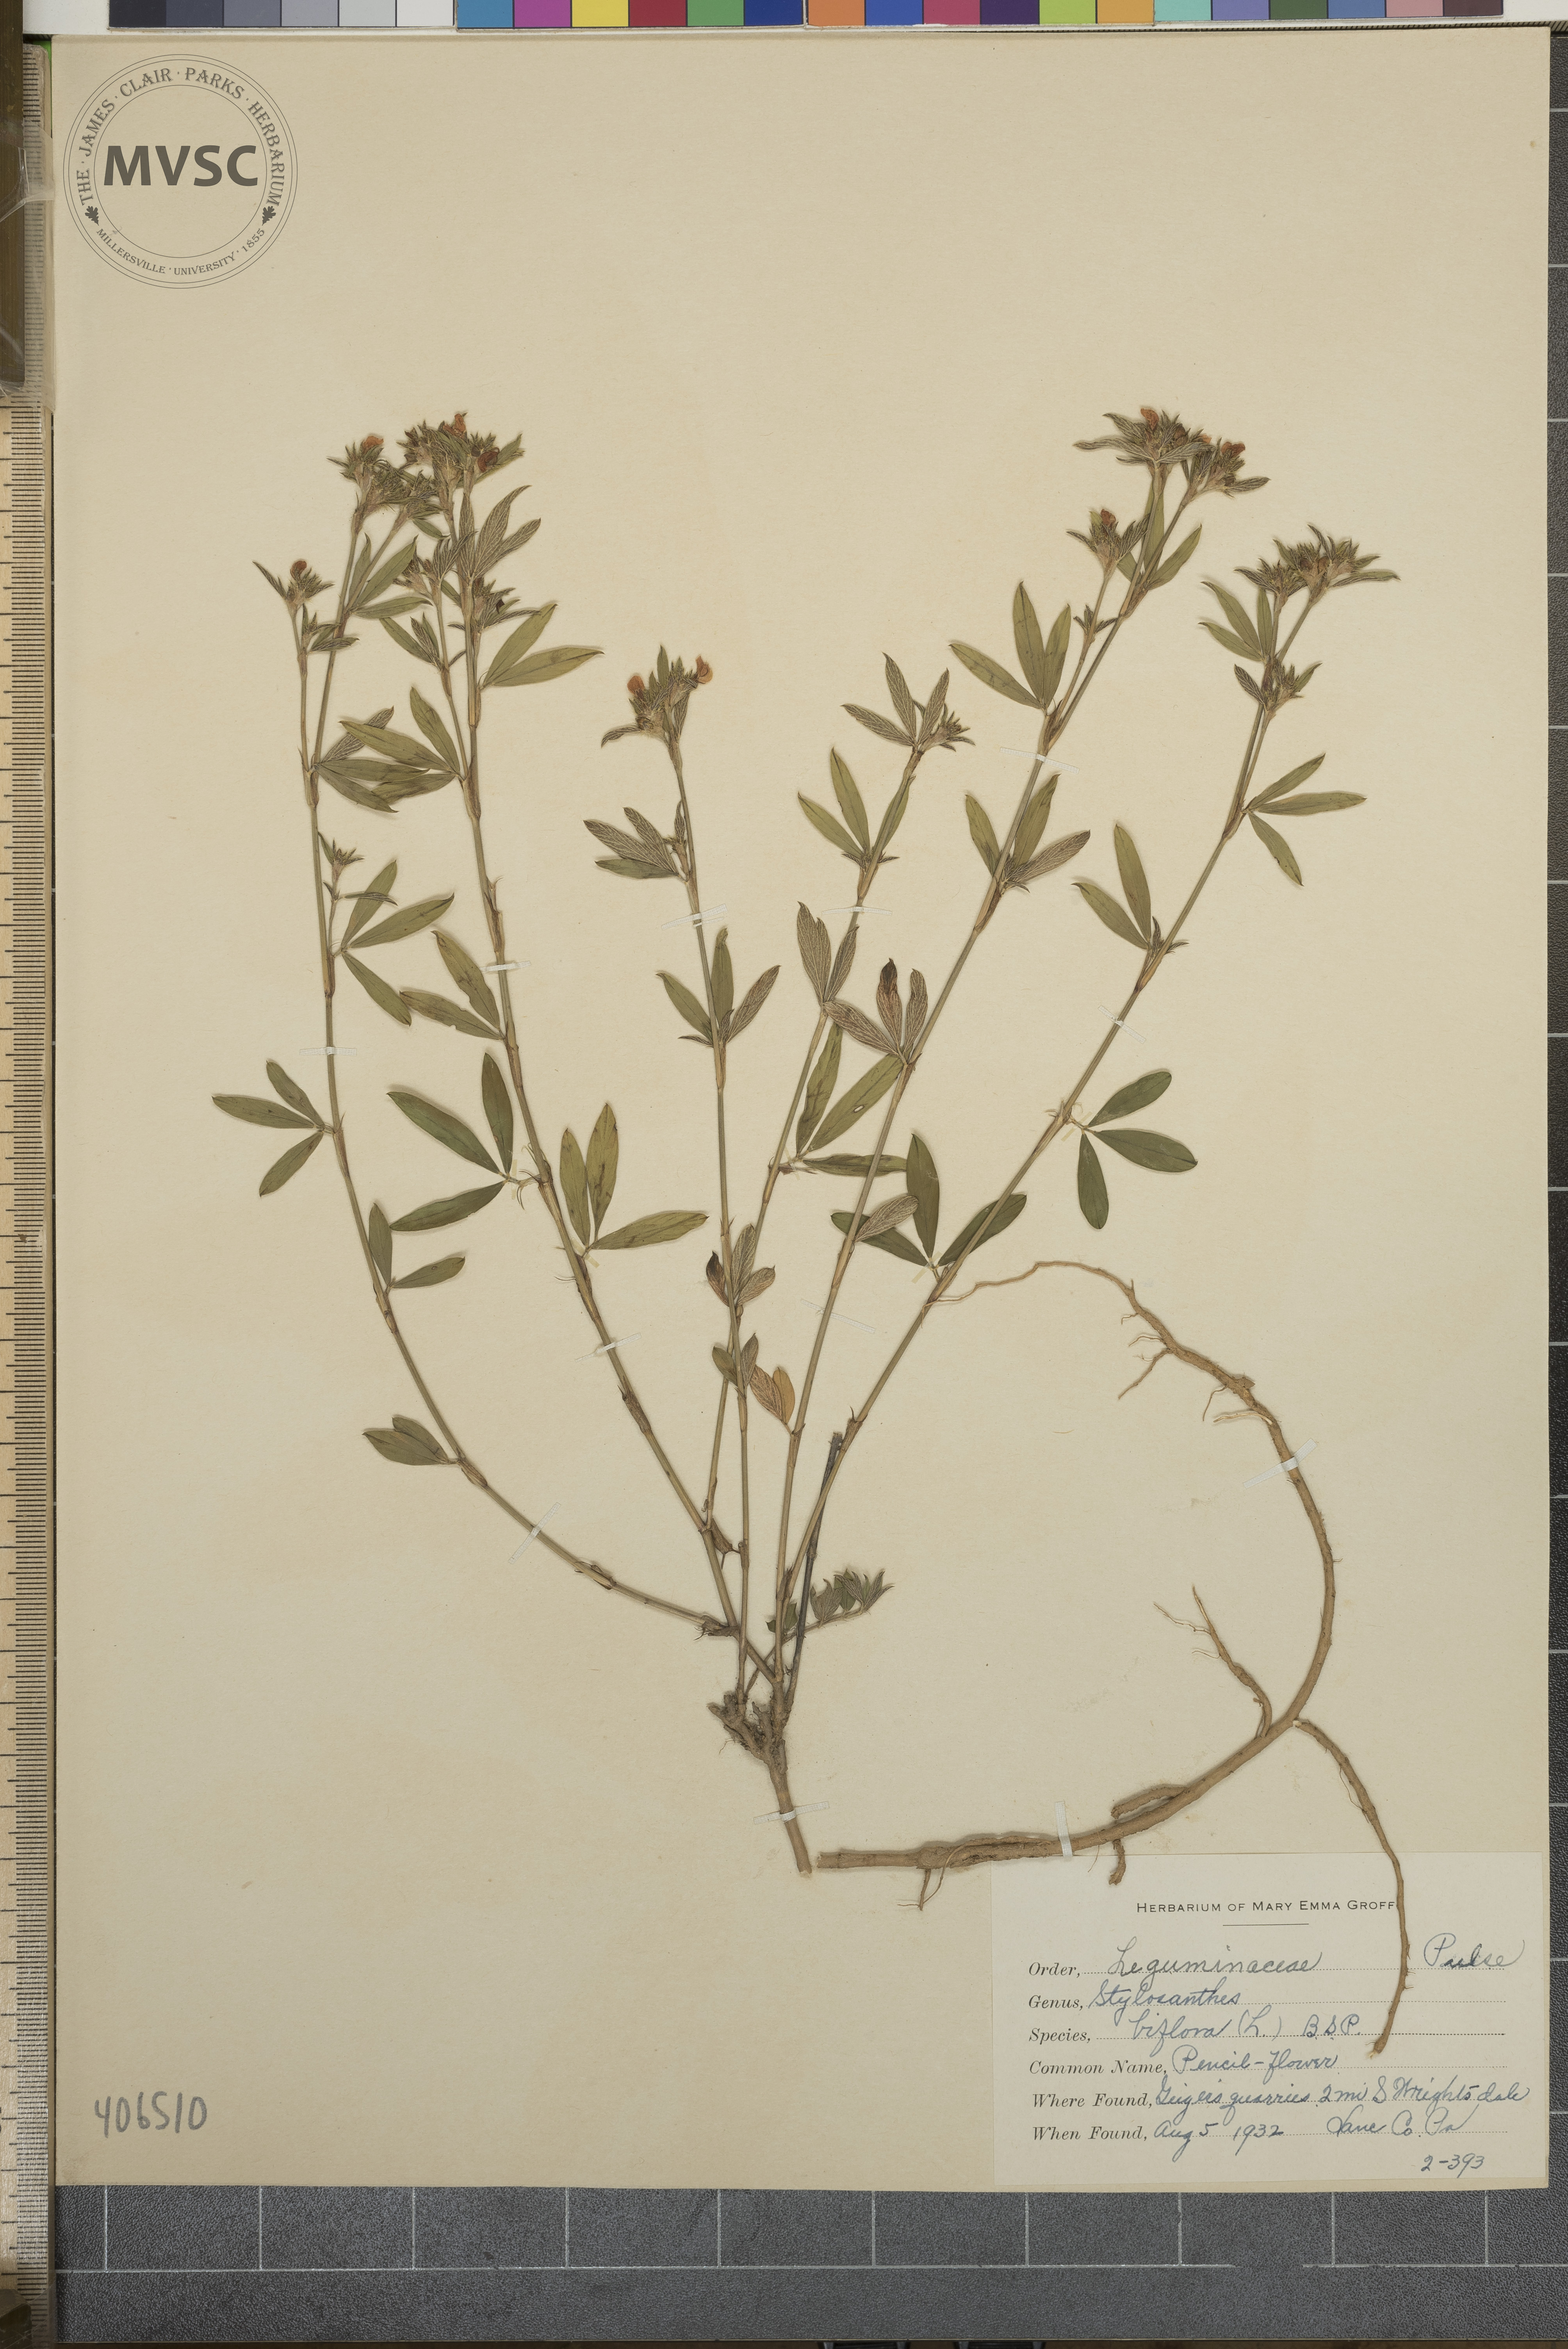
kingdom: Plantae
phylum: Tracheophyta
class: Magnoliopsida
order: Fabales
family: Fabaceae
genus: Stylosanthes
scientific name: Stylosanthes biflora
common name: Pencil-Flower
